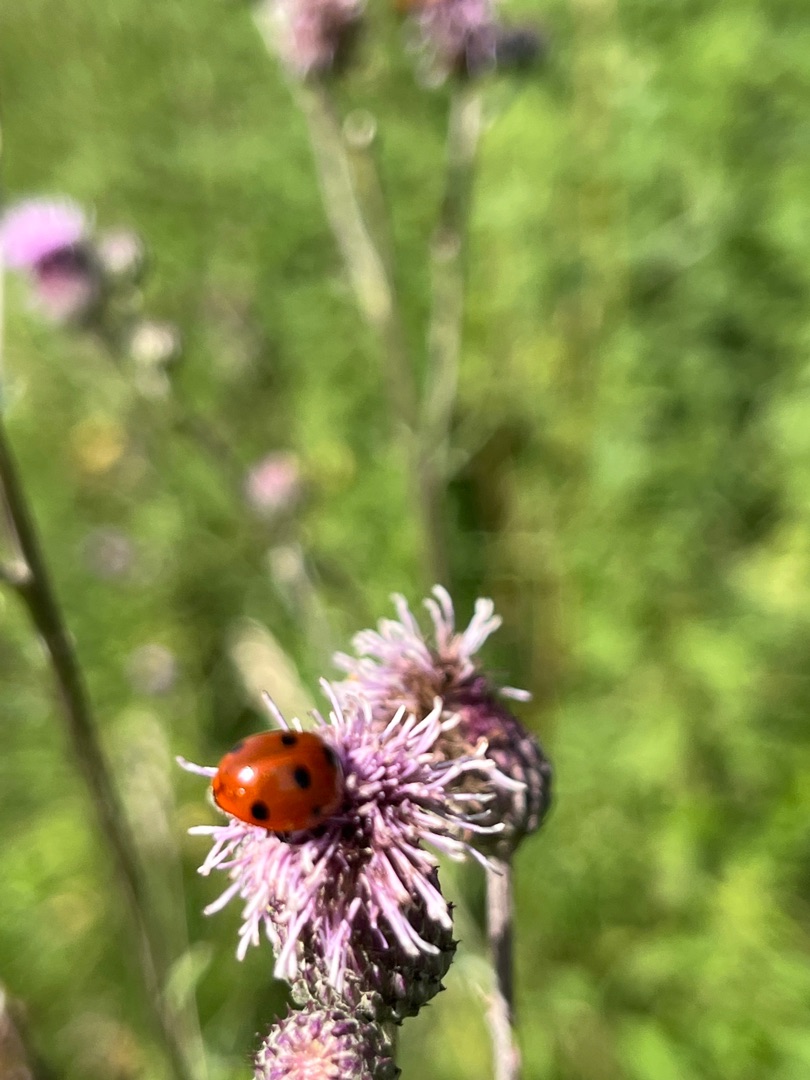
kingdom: Animalia
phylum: Arthropoda
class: Insecta
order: Coleoptera
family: Coccinellidae
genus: Coccinella
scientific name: Coccinella septempunctata
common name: Syvplettet mariehøne
